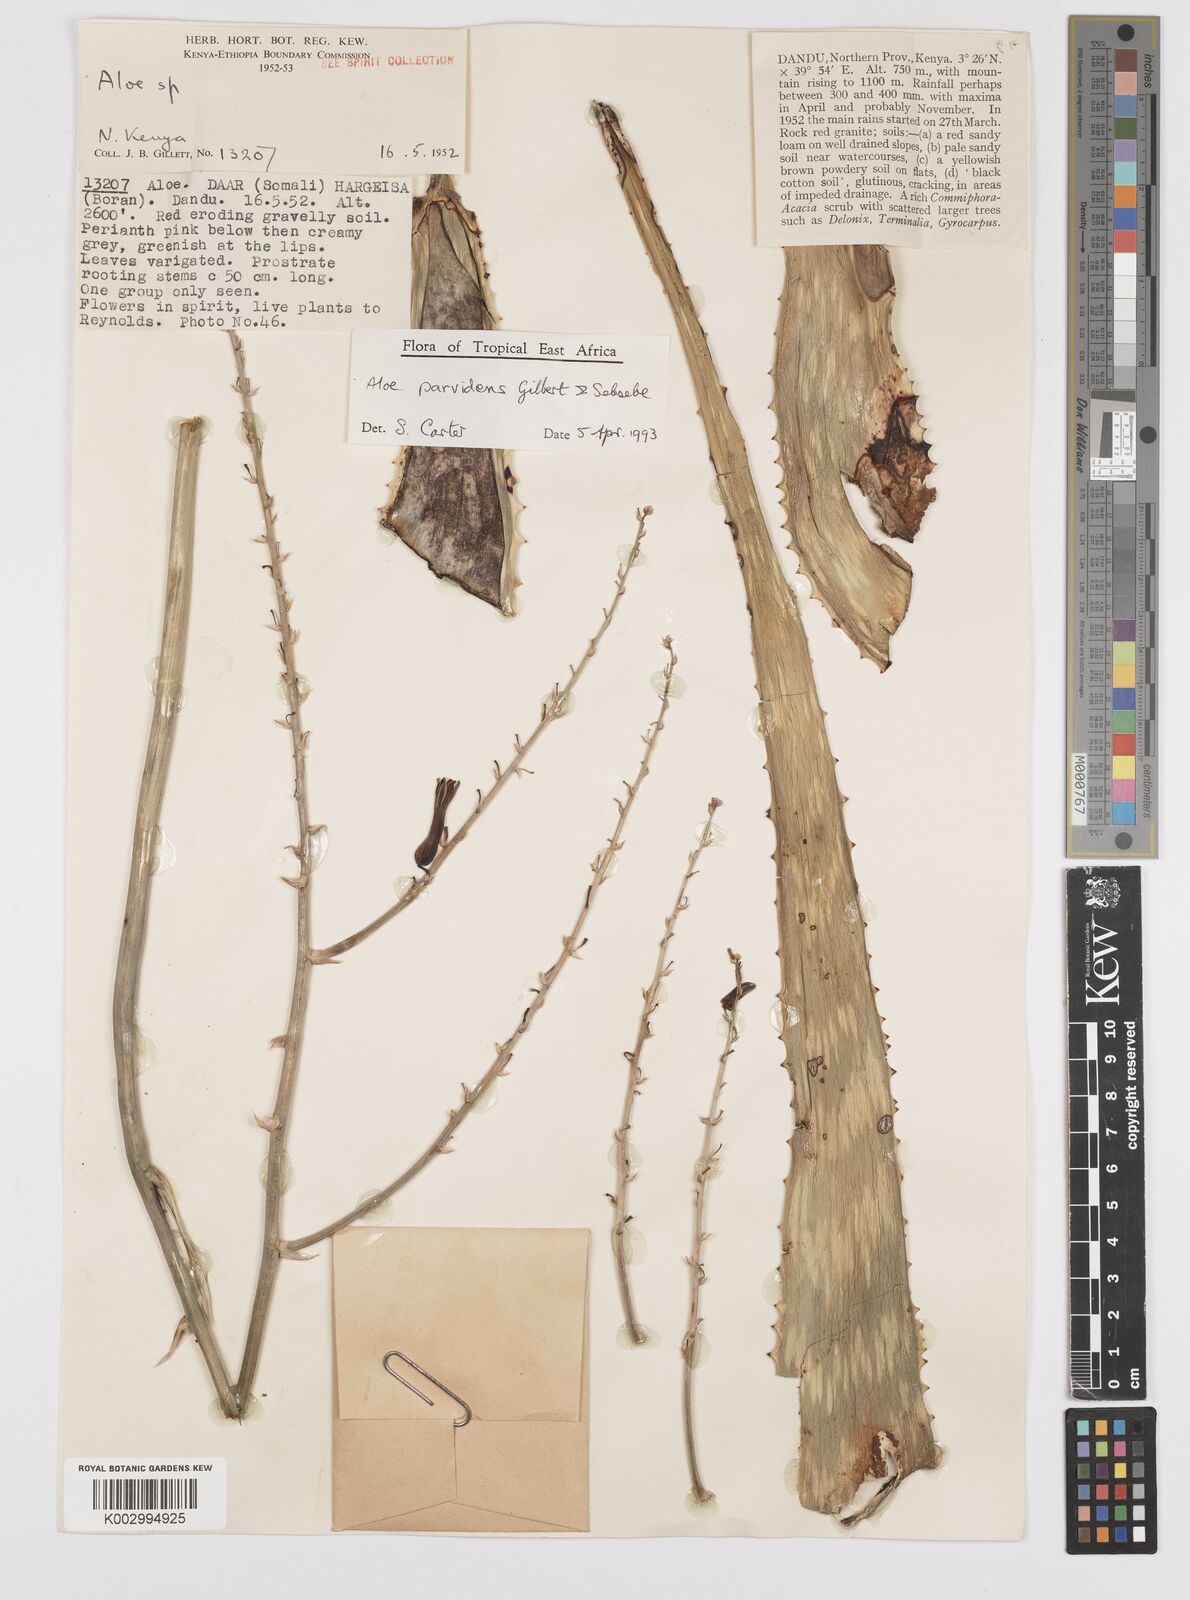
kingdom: Plantae
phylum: Tracheophyta
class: Liliopsida
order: Asparagales
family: Asphodelaceae
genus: Aloe
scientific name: Aloe parvidens
